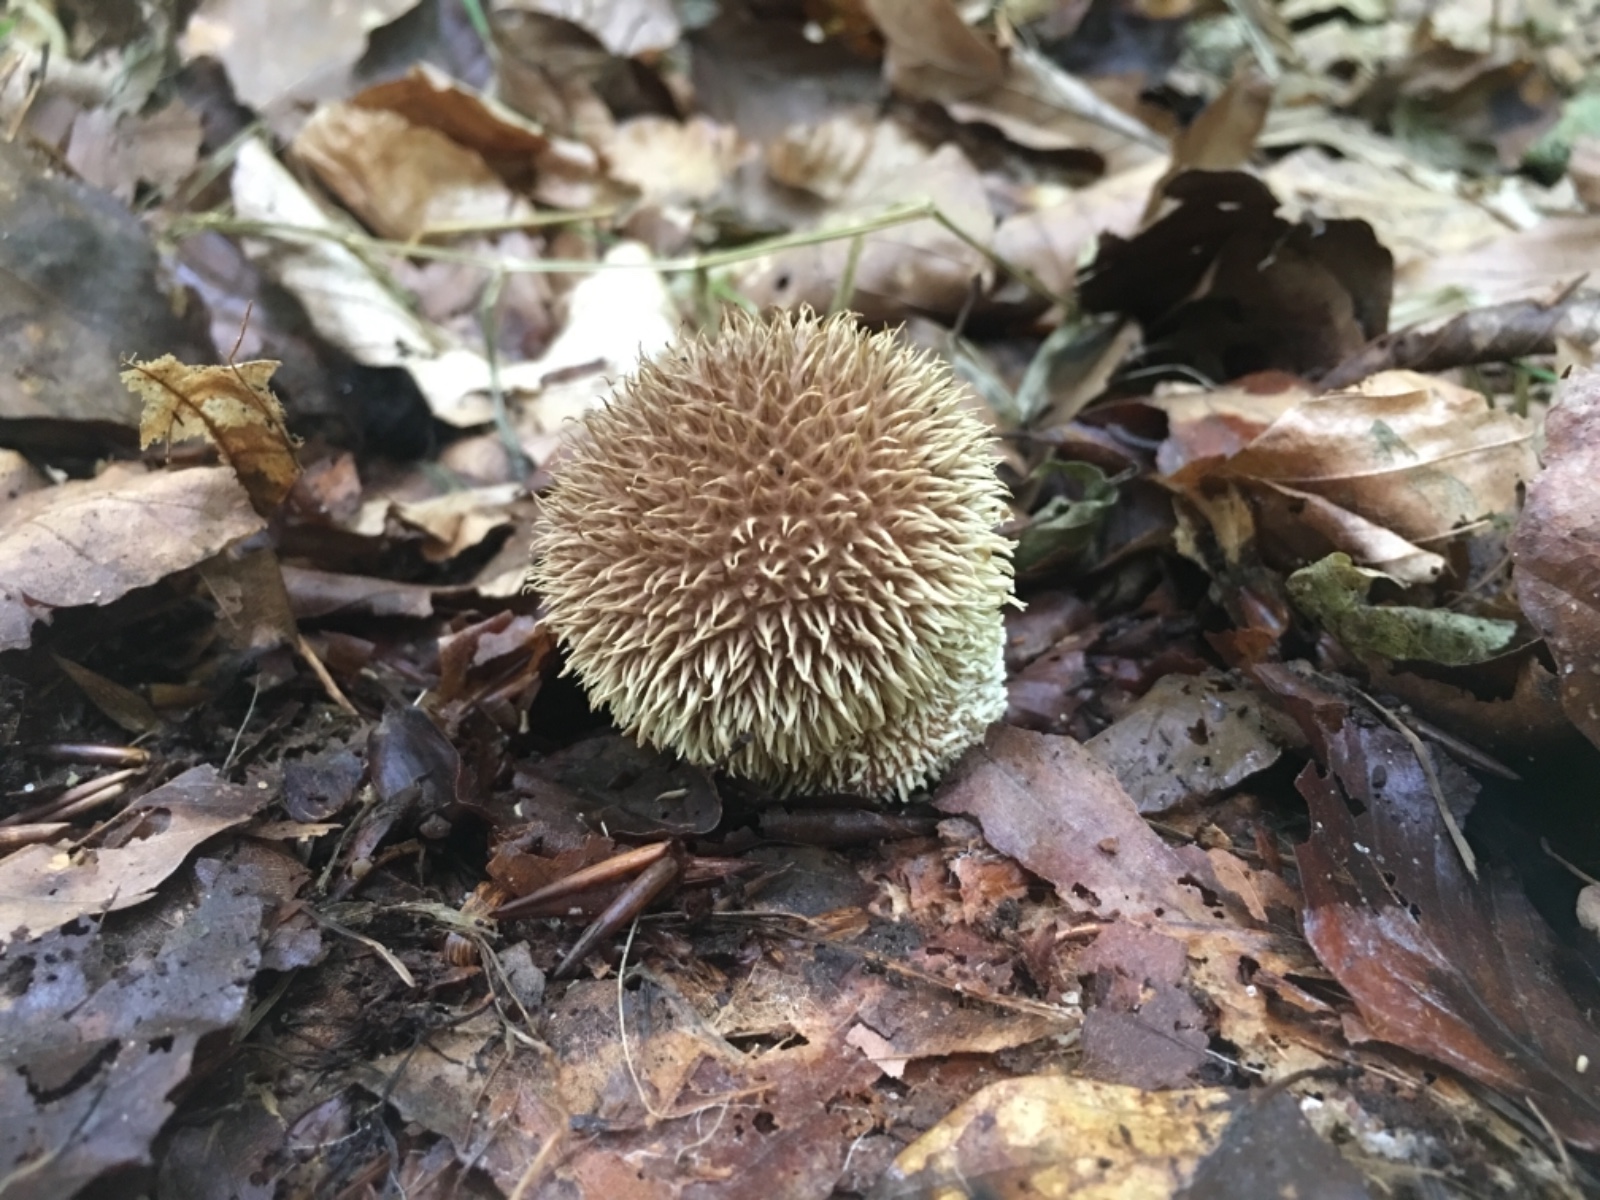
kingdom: Fungi
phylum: Basidiomycota
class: Agaricomycetes
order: Agaricales
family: Lycoperdaceae
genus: Lycoperdon
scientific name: Lycoperdon echinatum
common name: pindsvine-støvbold
